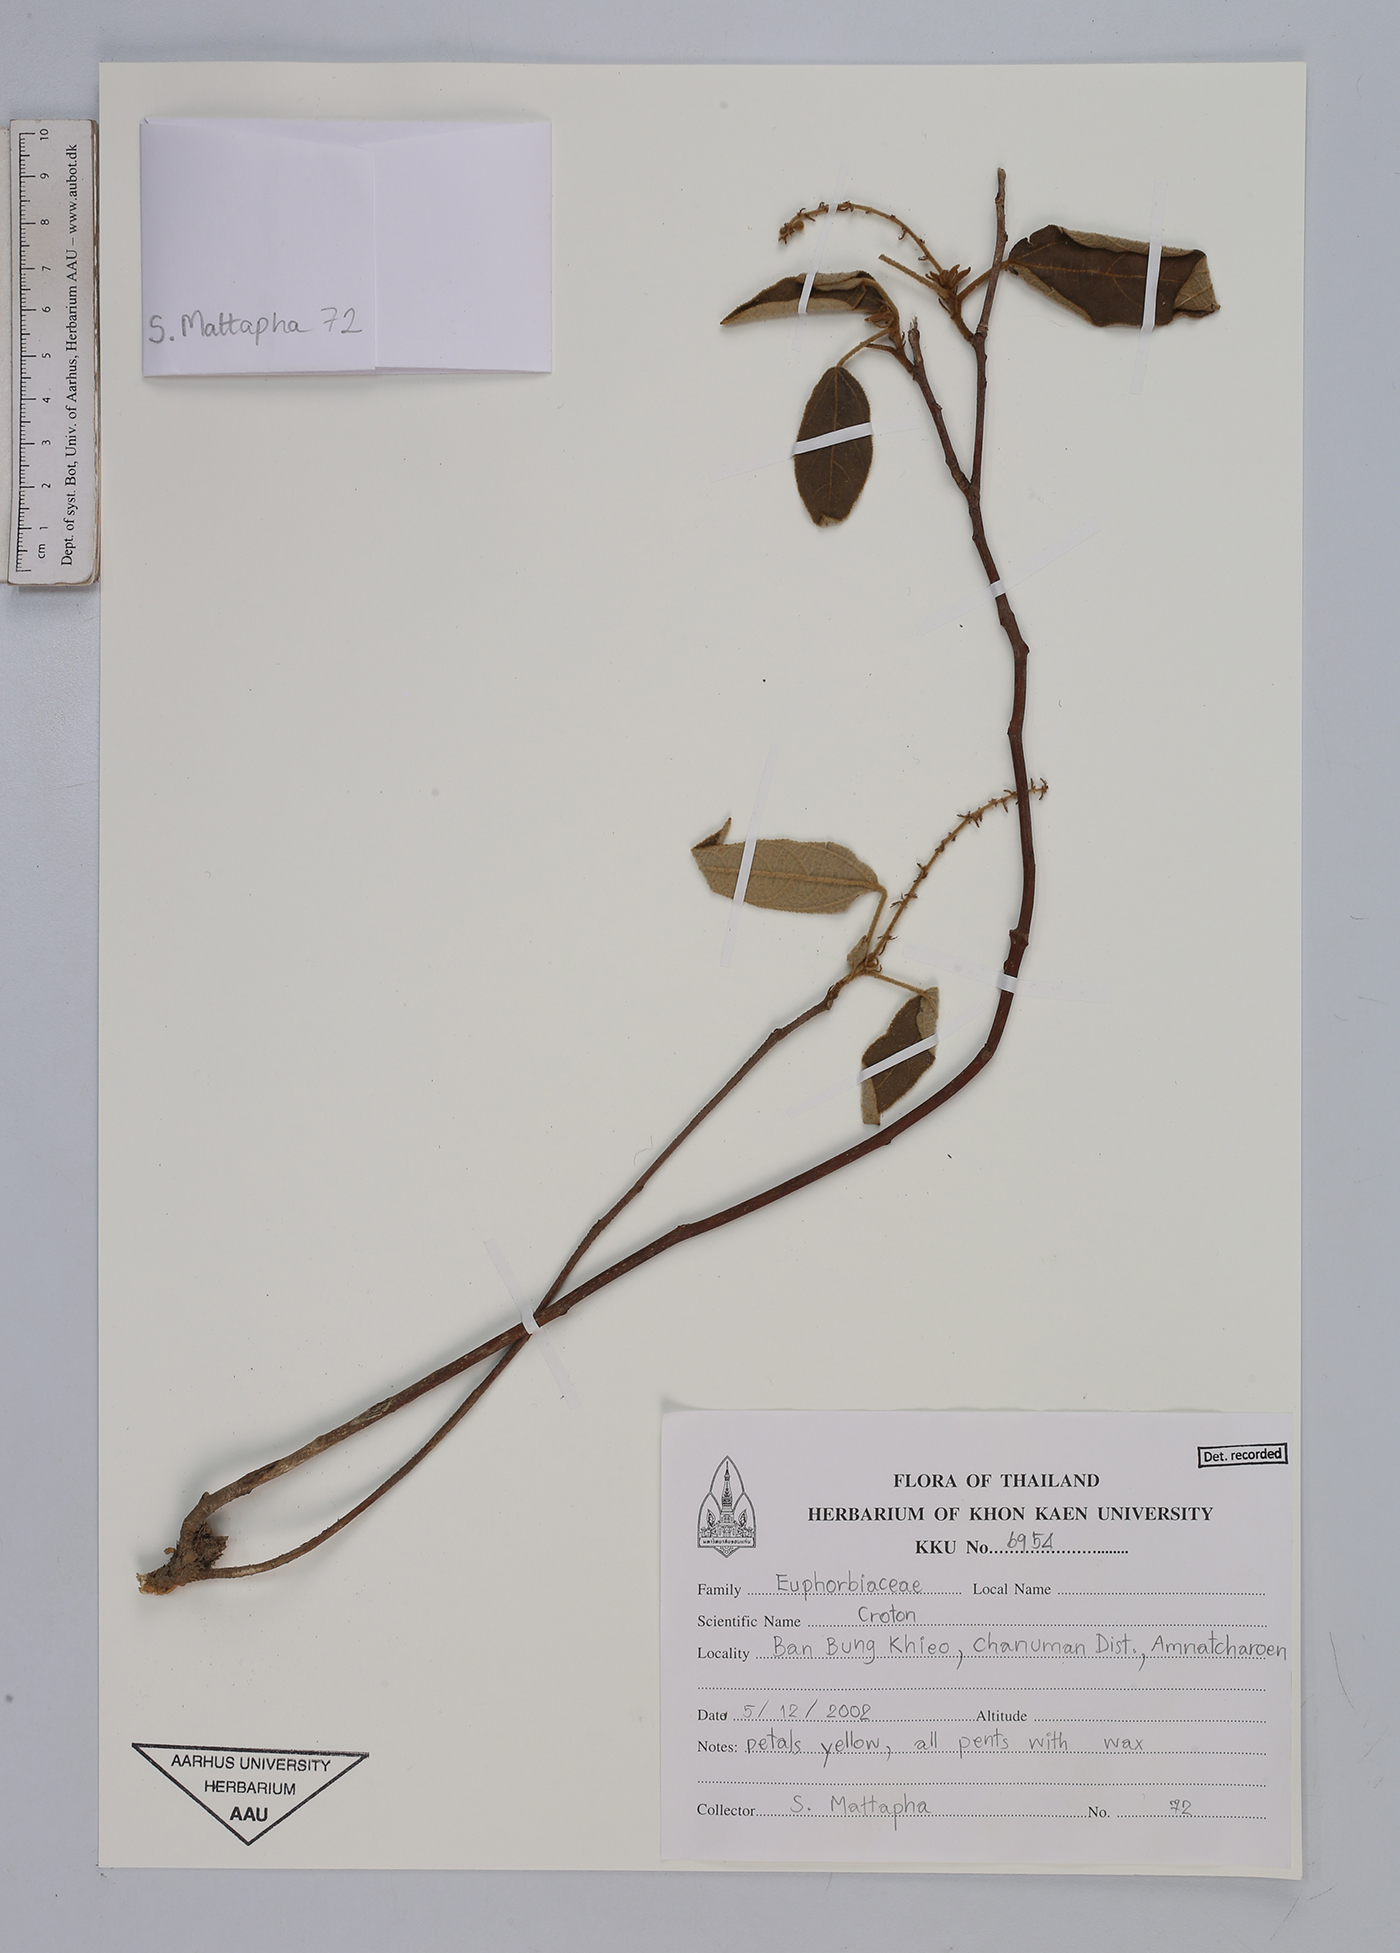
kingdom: Plantae
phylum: Tracheophyta
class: Magnoliopsida
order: Malpighiales
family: Euphorbiaceae
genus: Croton
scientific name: Croton
